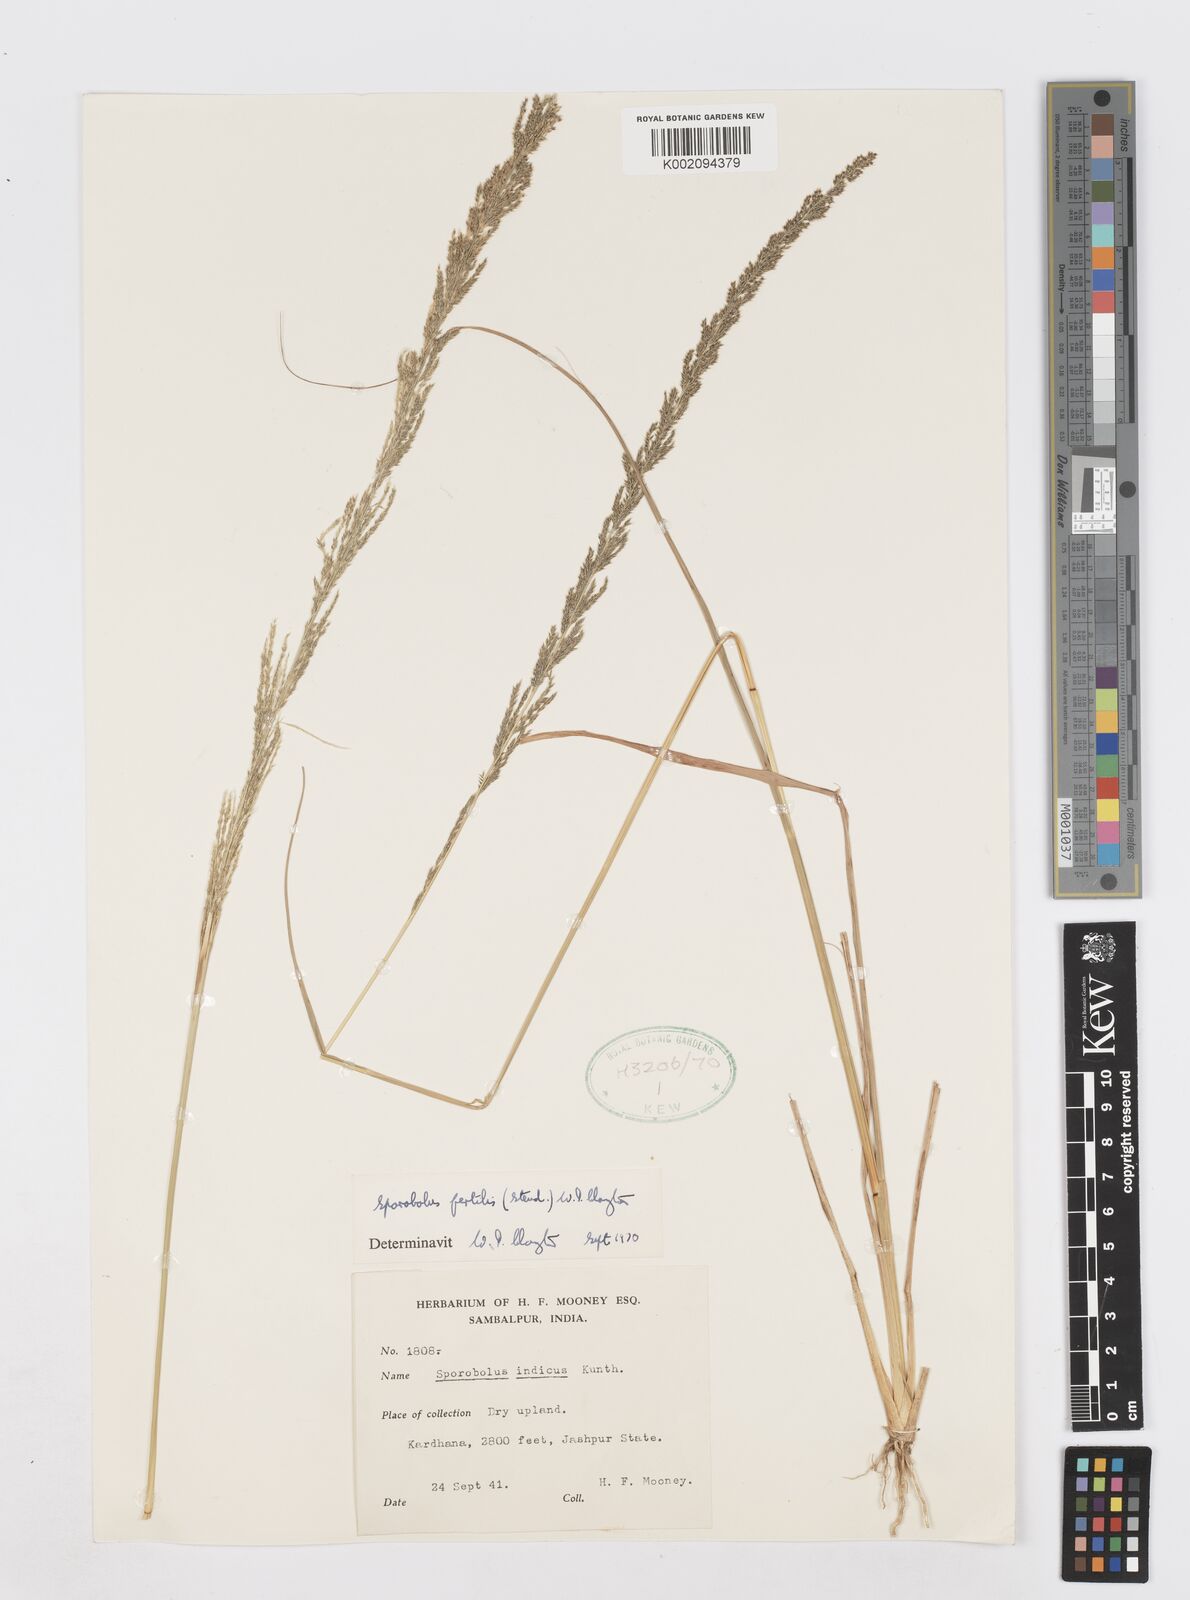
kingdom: Plantae
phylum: Tracheophyta
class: Liliopsida
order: Poales
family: Poaceae
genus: Sporobolus
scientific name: Sporobolus fertilis
